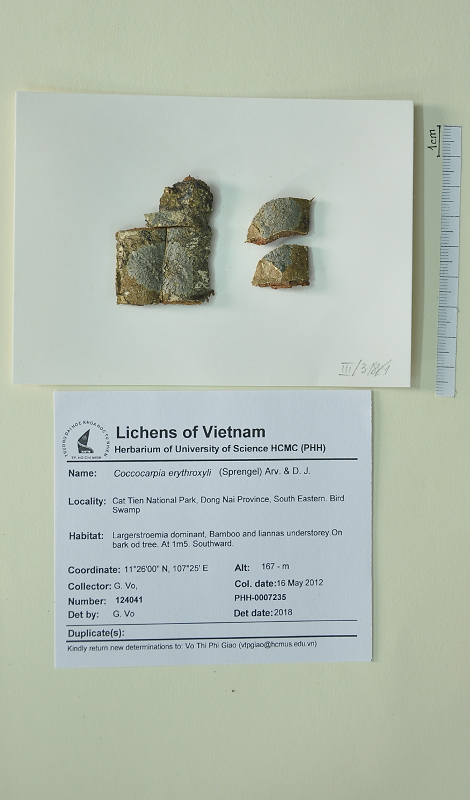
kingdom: Fungi
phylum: Ascomycota
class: Lecanoromycetes
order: Peltigerales
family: Coccocarpiaceae
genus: Coccocarpia
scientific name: Coccocarpia erythroxyli
